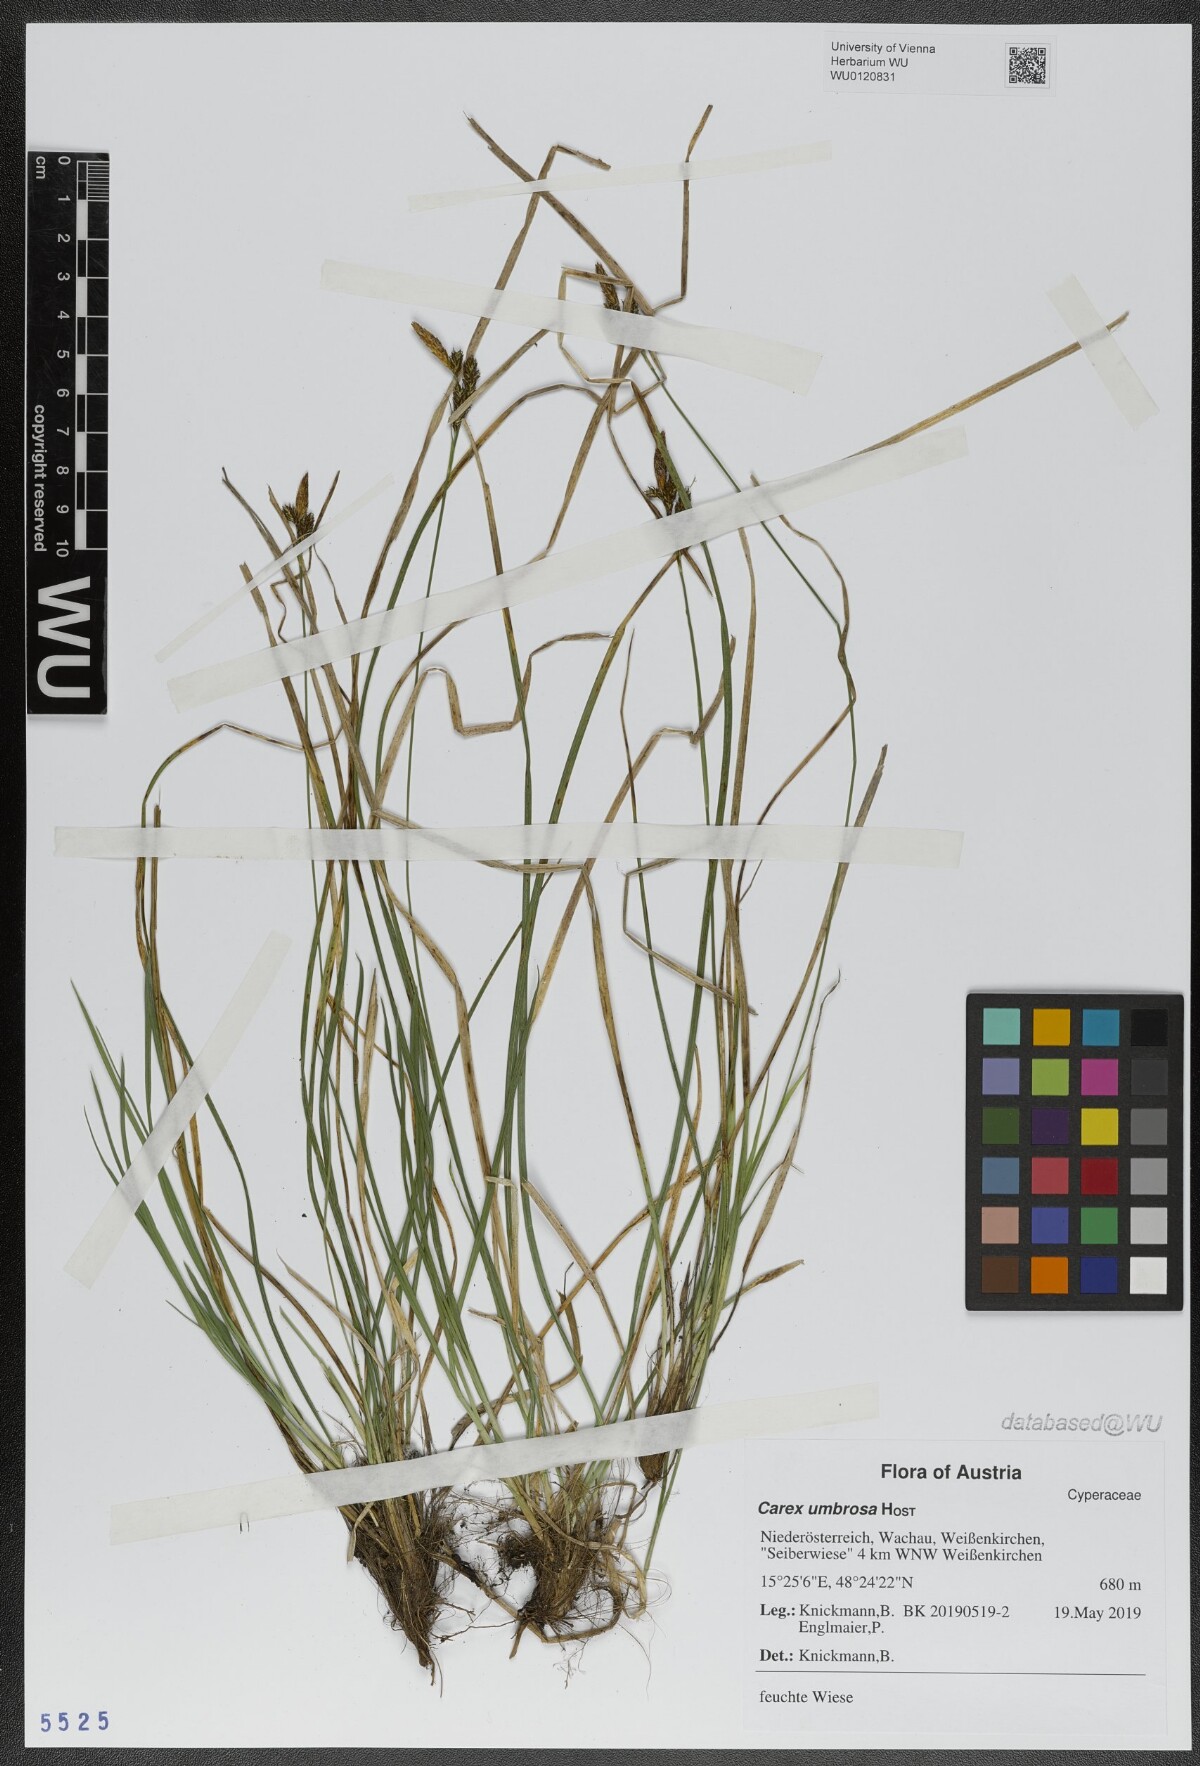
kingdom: Plantae
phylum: Tracheophyta
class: Liliopsida
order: Poales
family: Cyperaceae
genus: Carex
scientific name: Carex umbrosa
